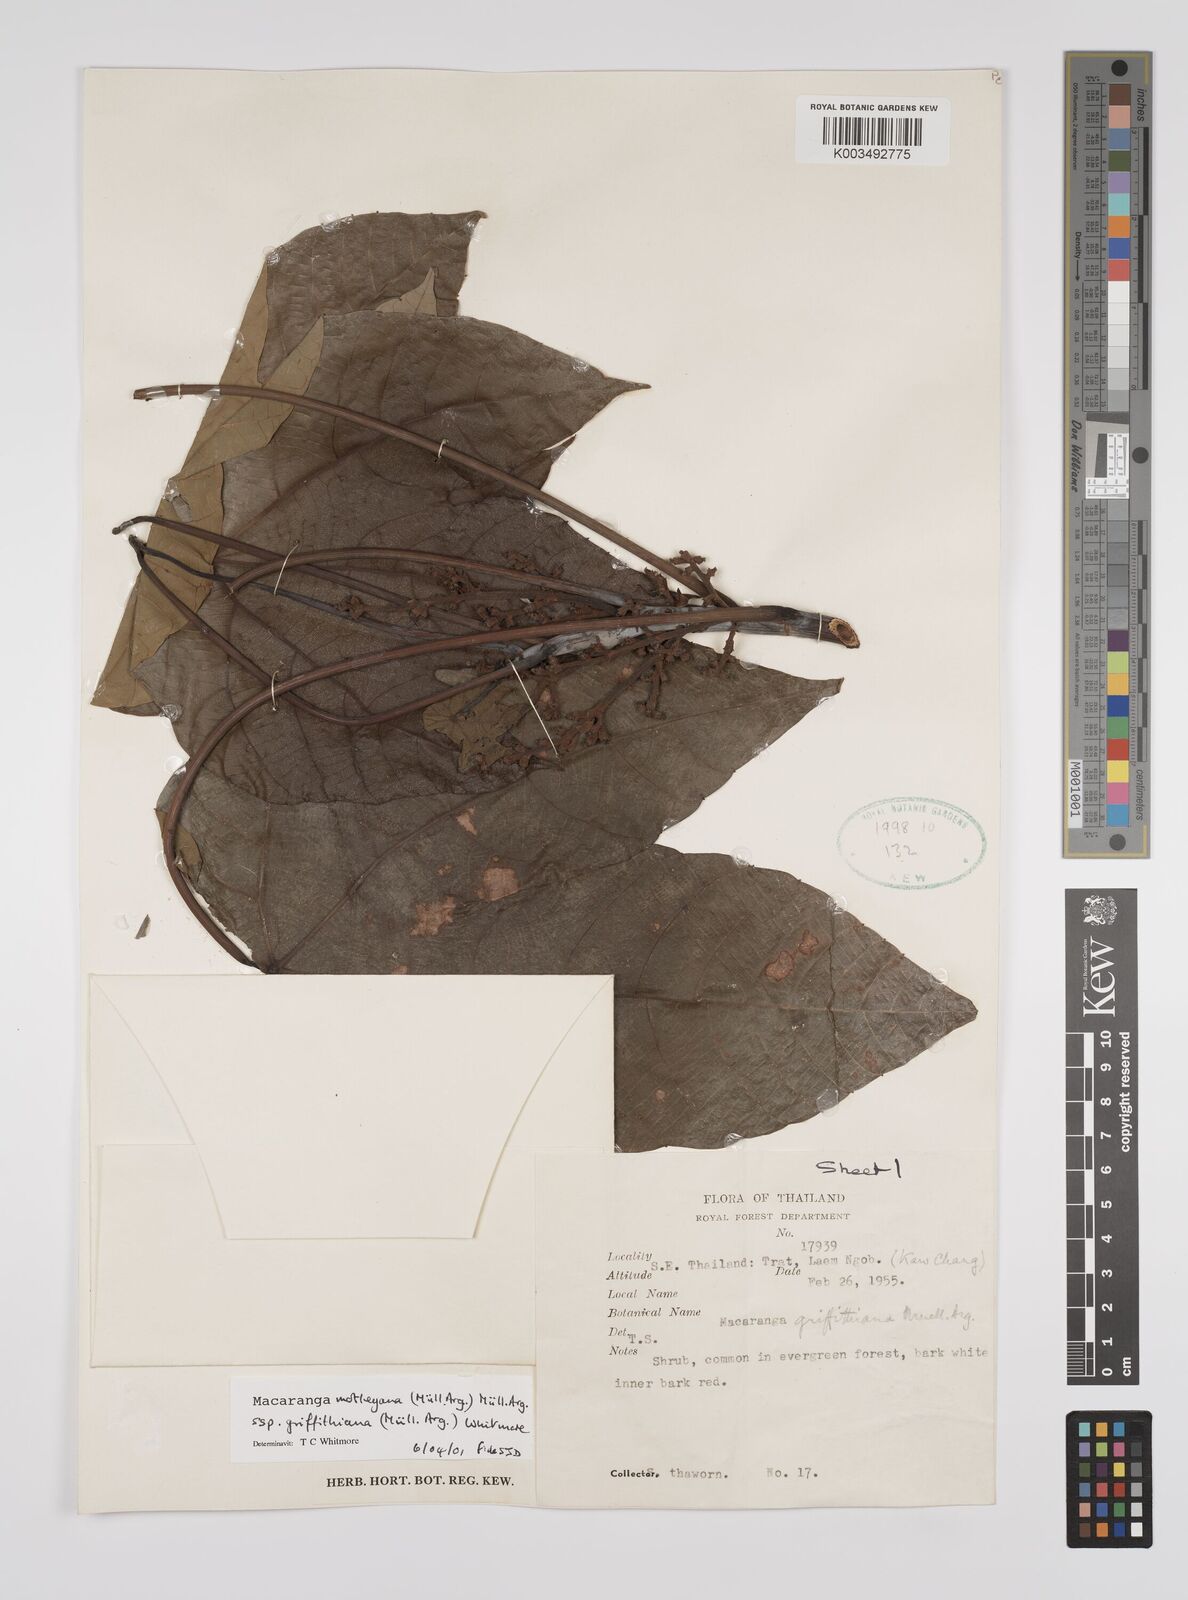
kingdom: Plantae
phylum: Tracheophyta
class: Magnoliopsida
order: Malpighiales
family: Euphorbiaceae
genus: Macaranga
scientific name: Macaranga griffithiana
